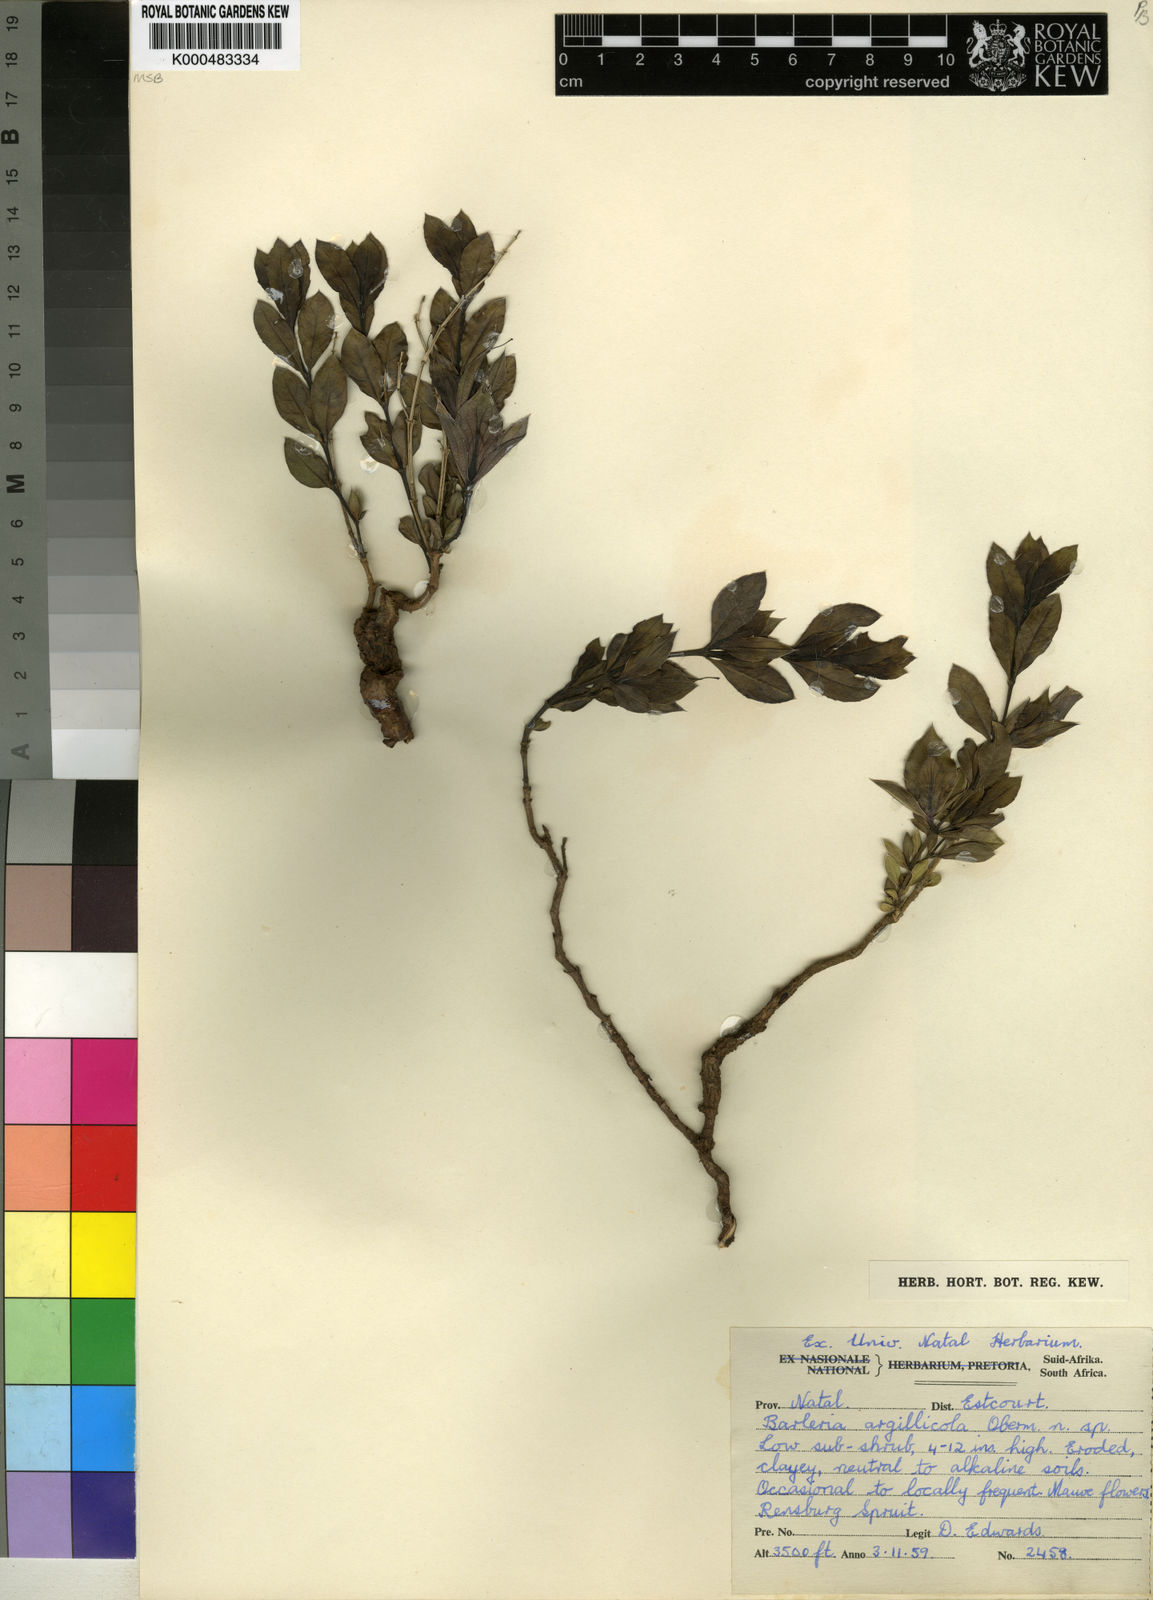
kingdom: Plantae
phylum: Tracheophyta
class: Magnoliopsida
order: Lamiales
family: Acanthaceae
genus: Barleria
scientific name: Barleria argillicola
